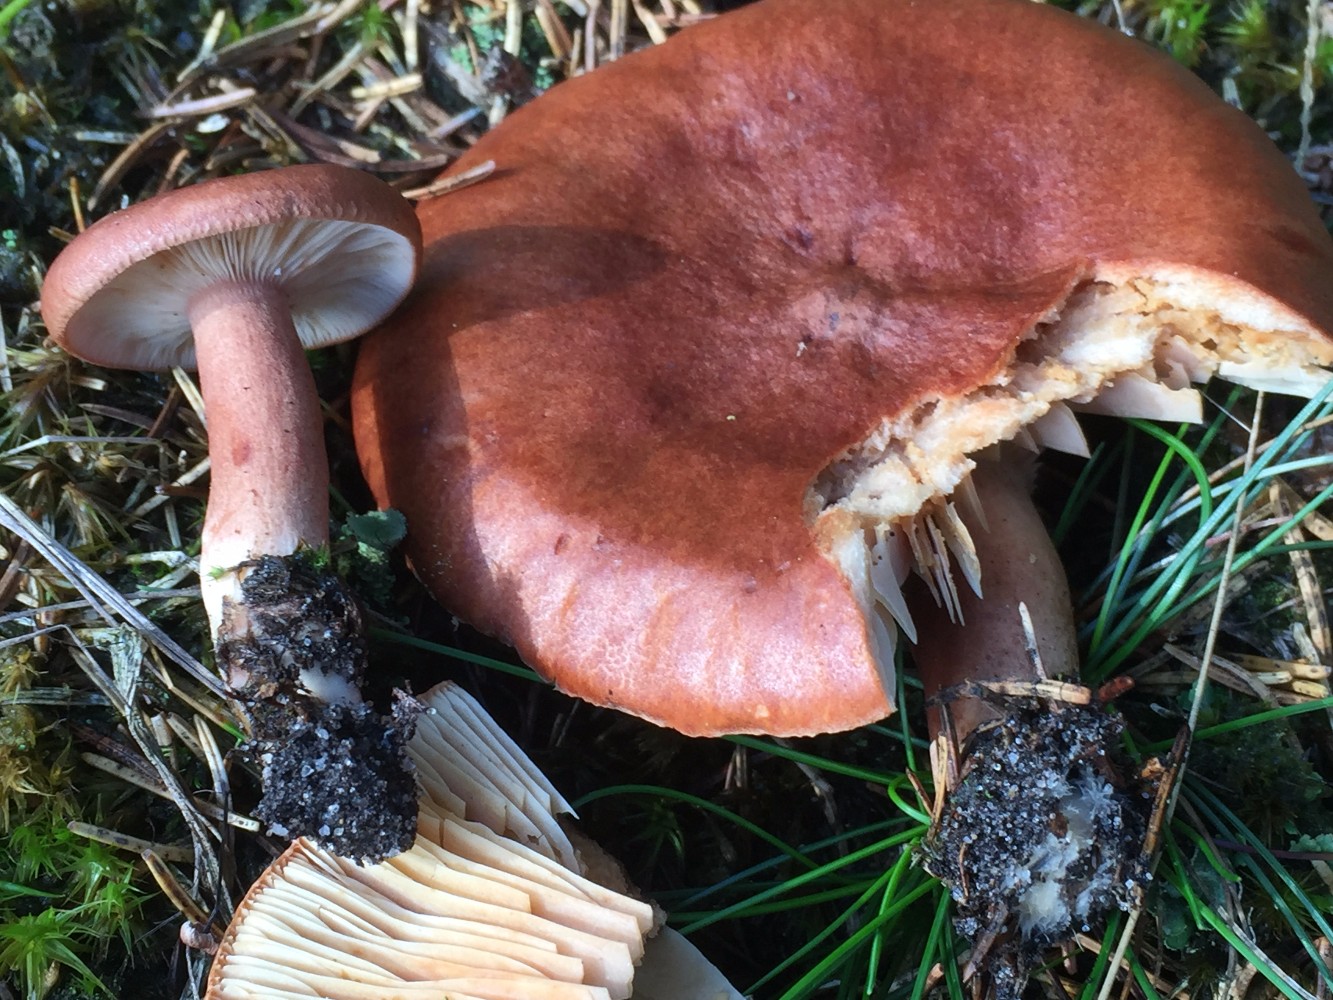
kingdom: Fungi
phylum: Basidiomycota
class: Agaricomycetes
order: Russulales
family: Russulaceae
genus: Lactarius
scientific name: Lactarius rufus
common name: rødbrun mælkehat
